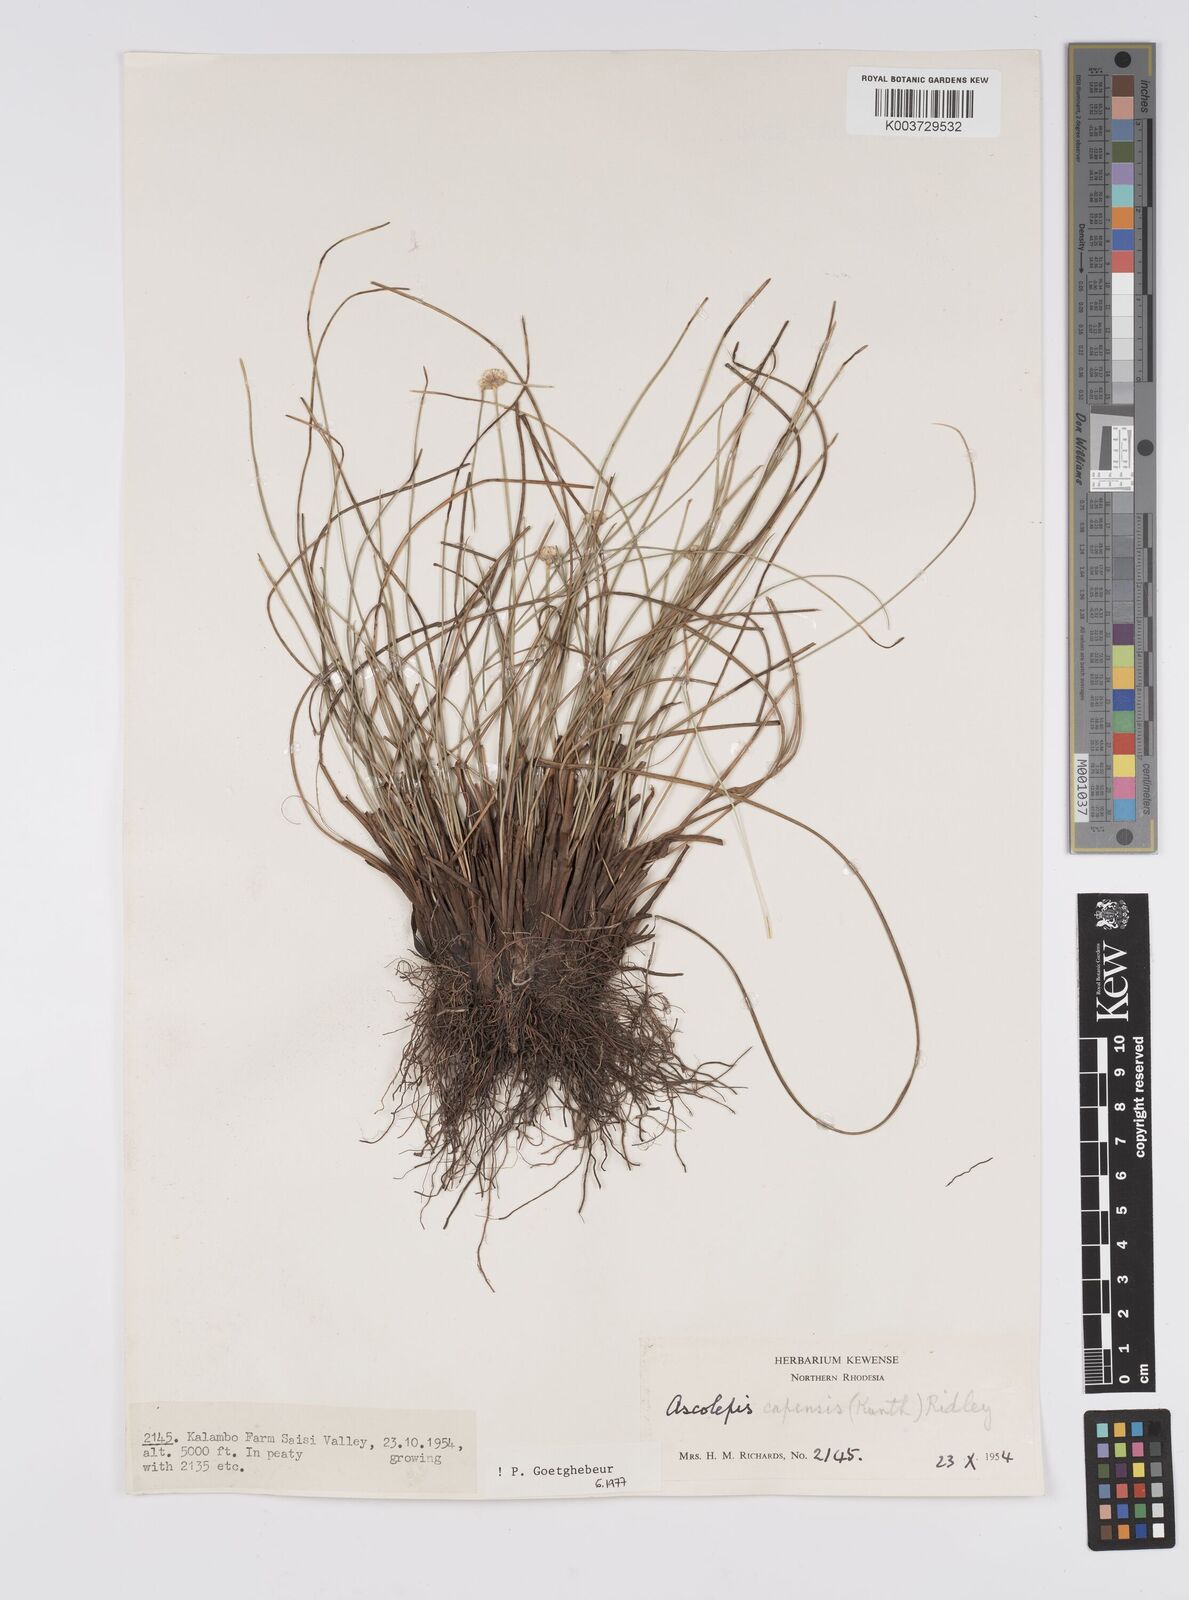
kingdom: Plantae
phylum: Tracheophyta
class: Liliopsida
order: Poales
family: Cyperaceae
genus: Cyperus
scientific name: Cyperus
